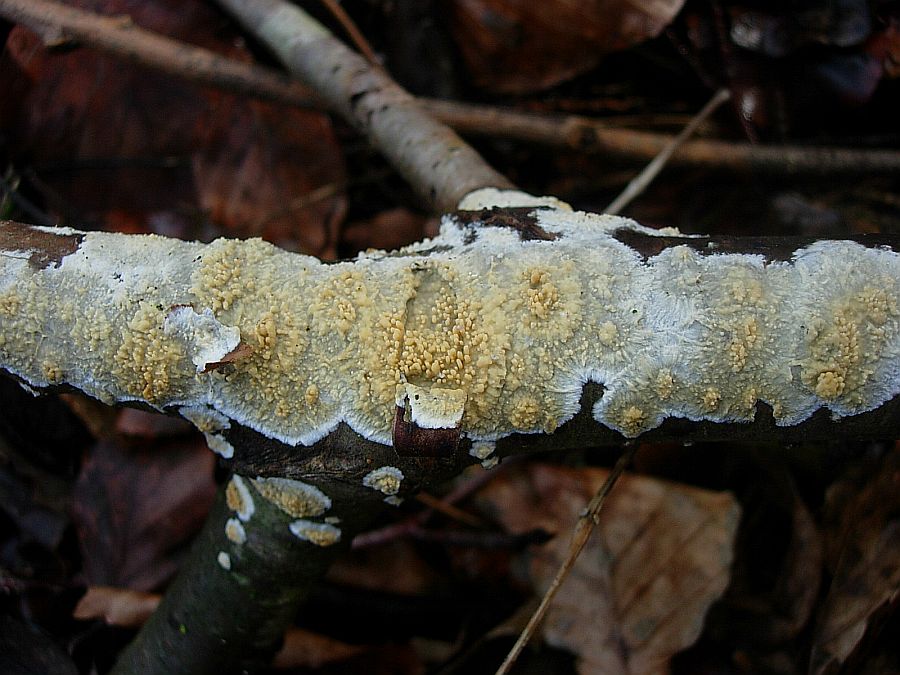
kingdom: Fungi
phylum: Basidiomycota
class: Agaricomycetes
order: Hymenochaetales
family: Schizoporaceae
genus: Xylodon
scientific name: Xylodon radula
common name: grovtandet kalkskind
